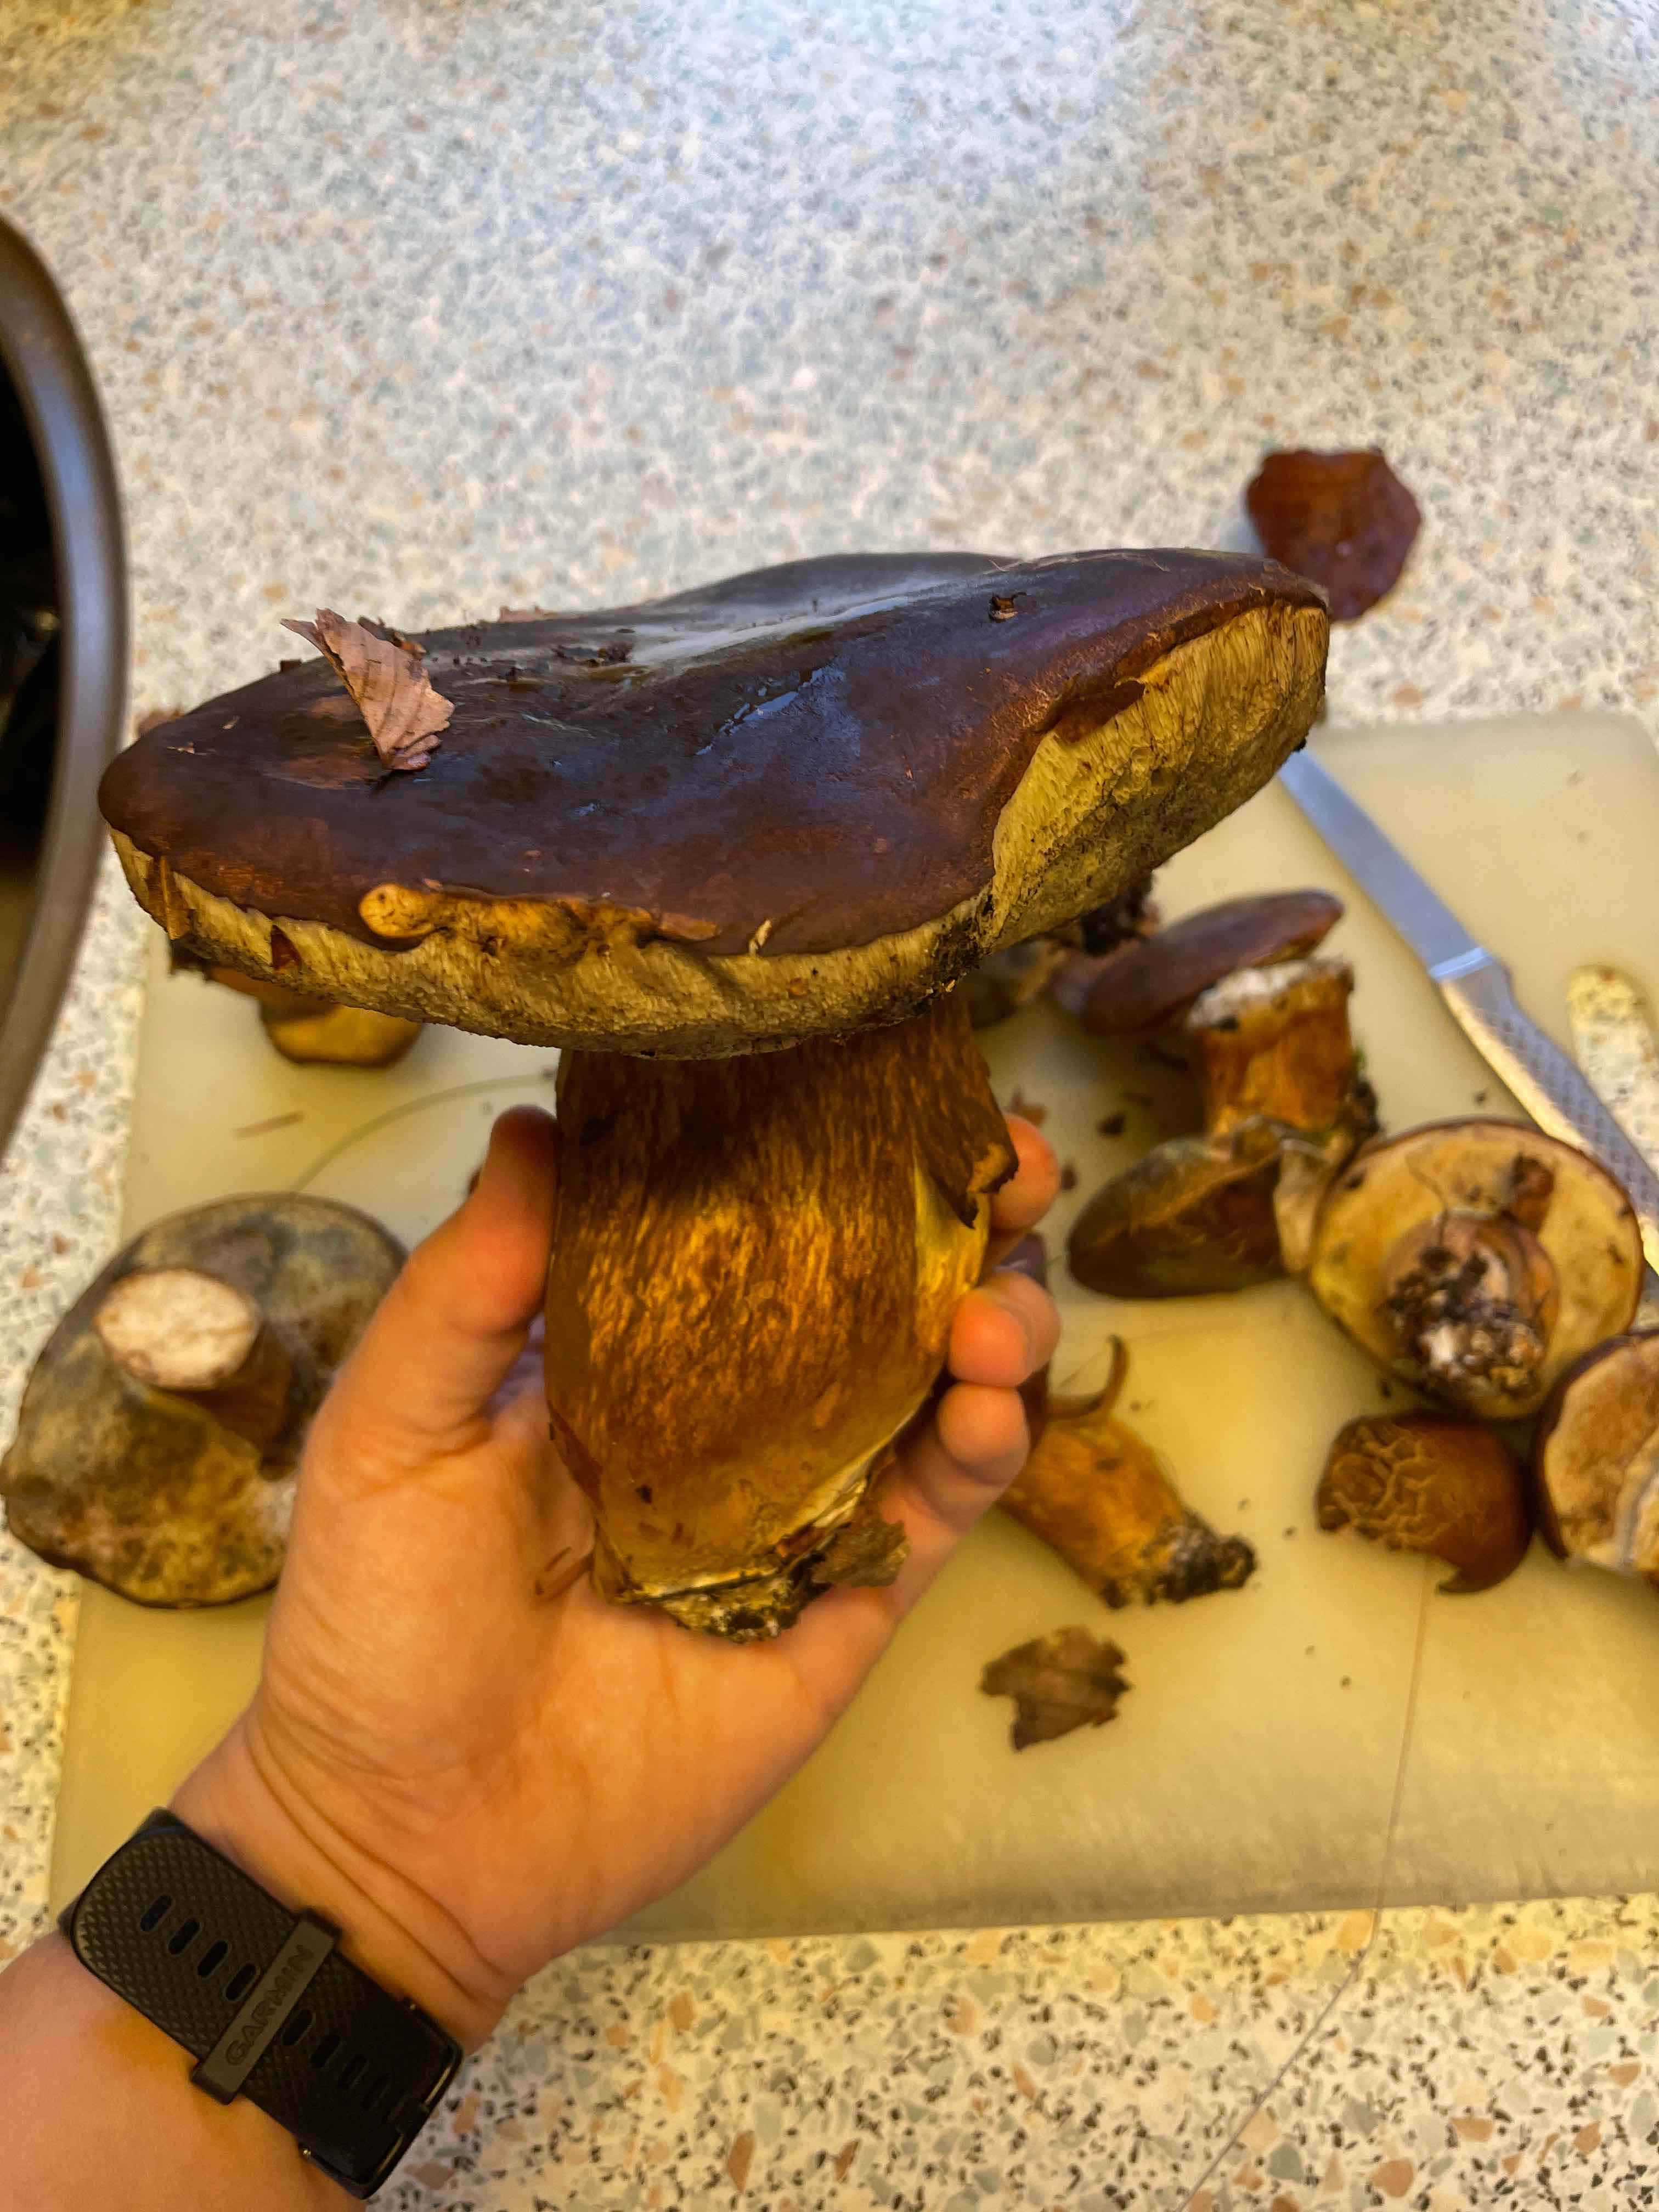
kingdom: Fungi
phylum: Basidiomycota
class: Agaricomycetes
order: Boletales
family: Boletaceae
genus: Imleria
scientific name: Imleria badia
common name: brunstokket rørhat
